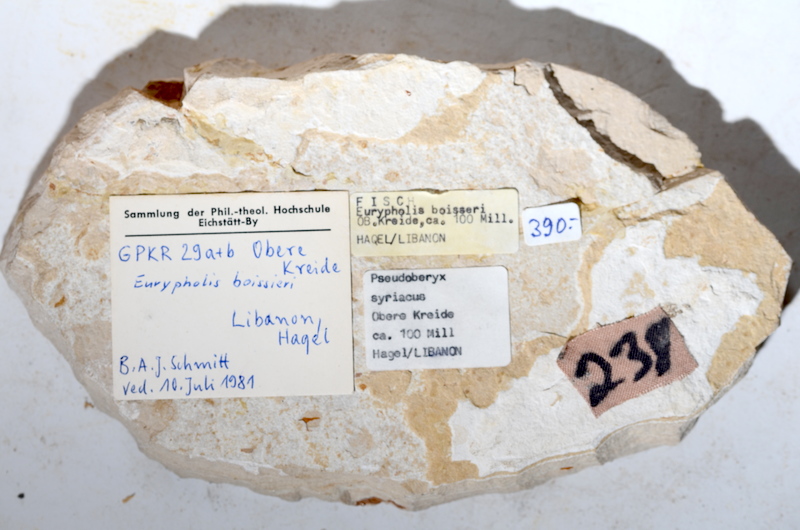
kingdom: Animalia
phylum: Chordata
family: Paraclupeidae
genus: Diplomystus
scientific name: Diplomystus
